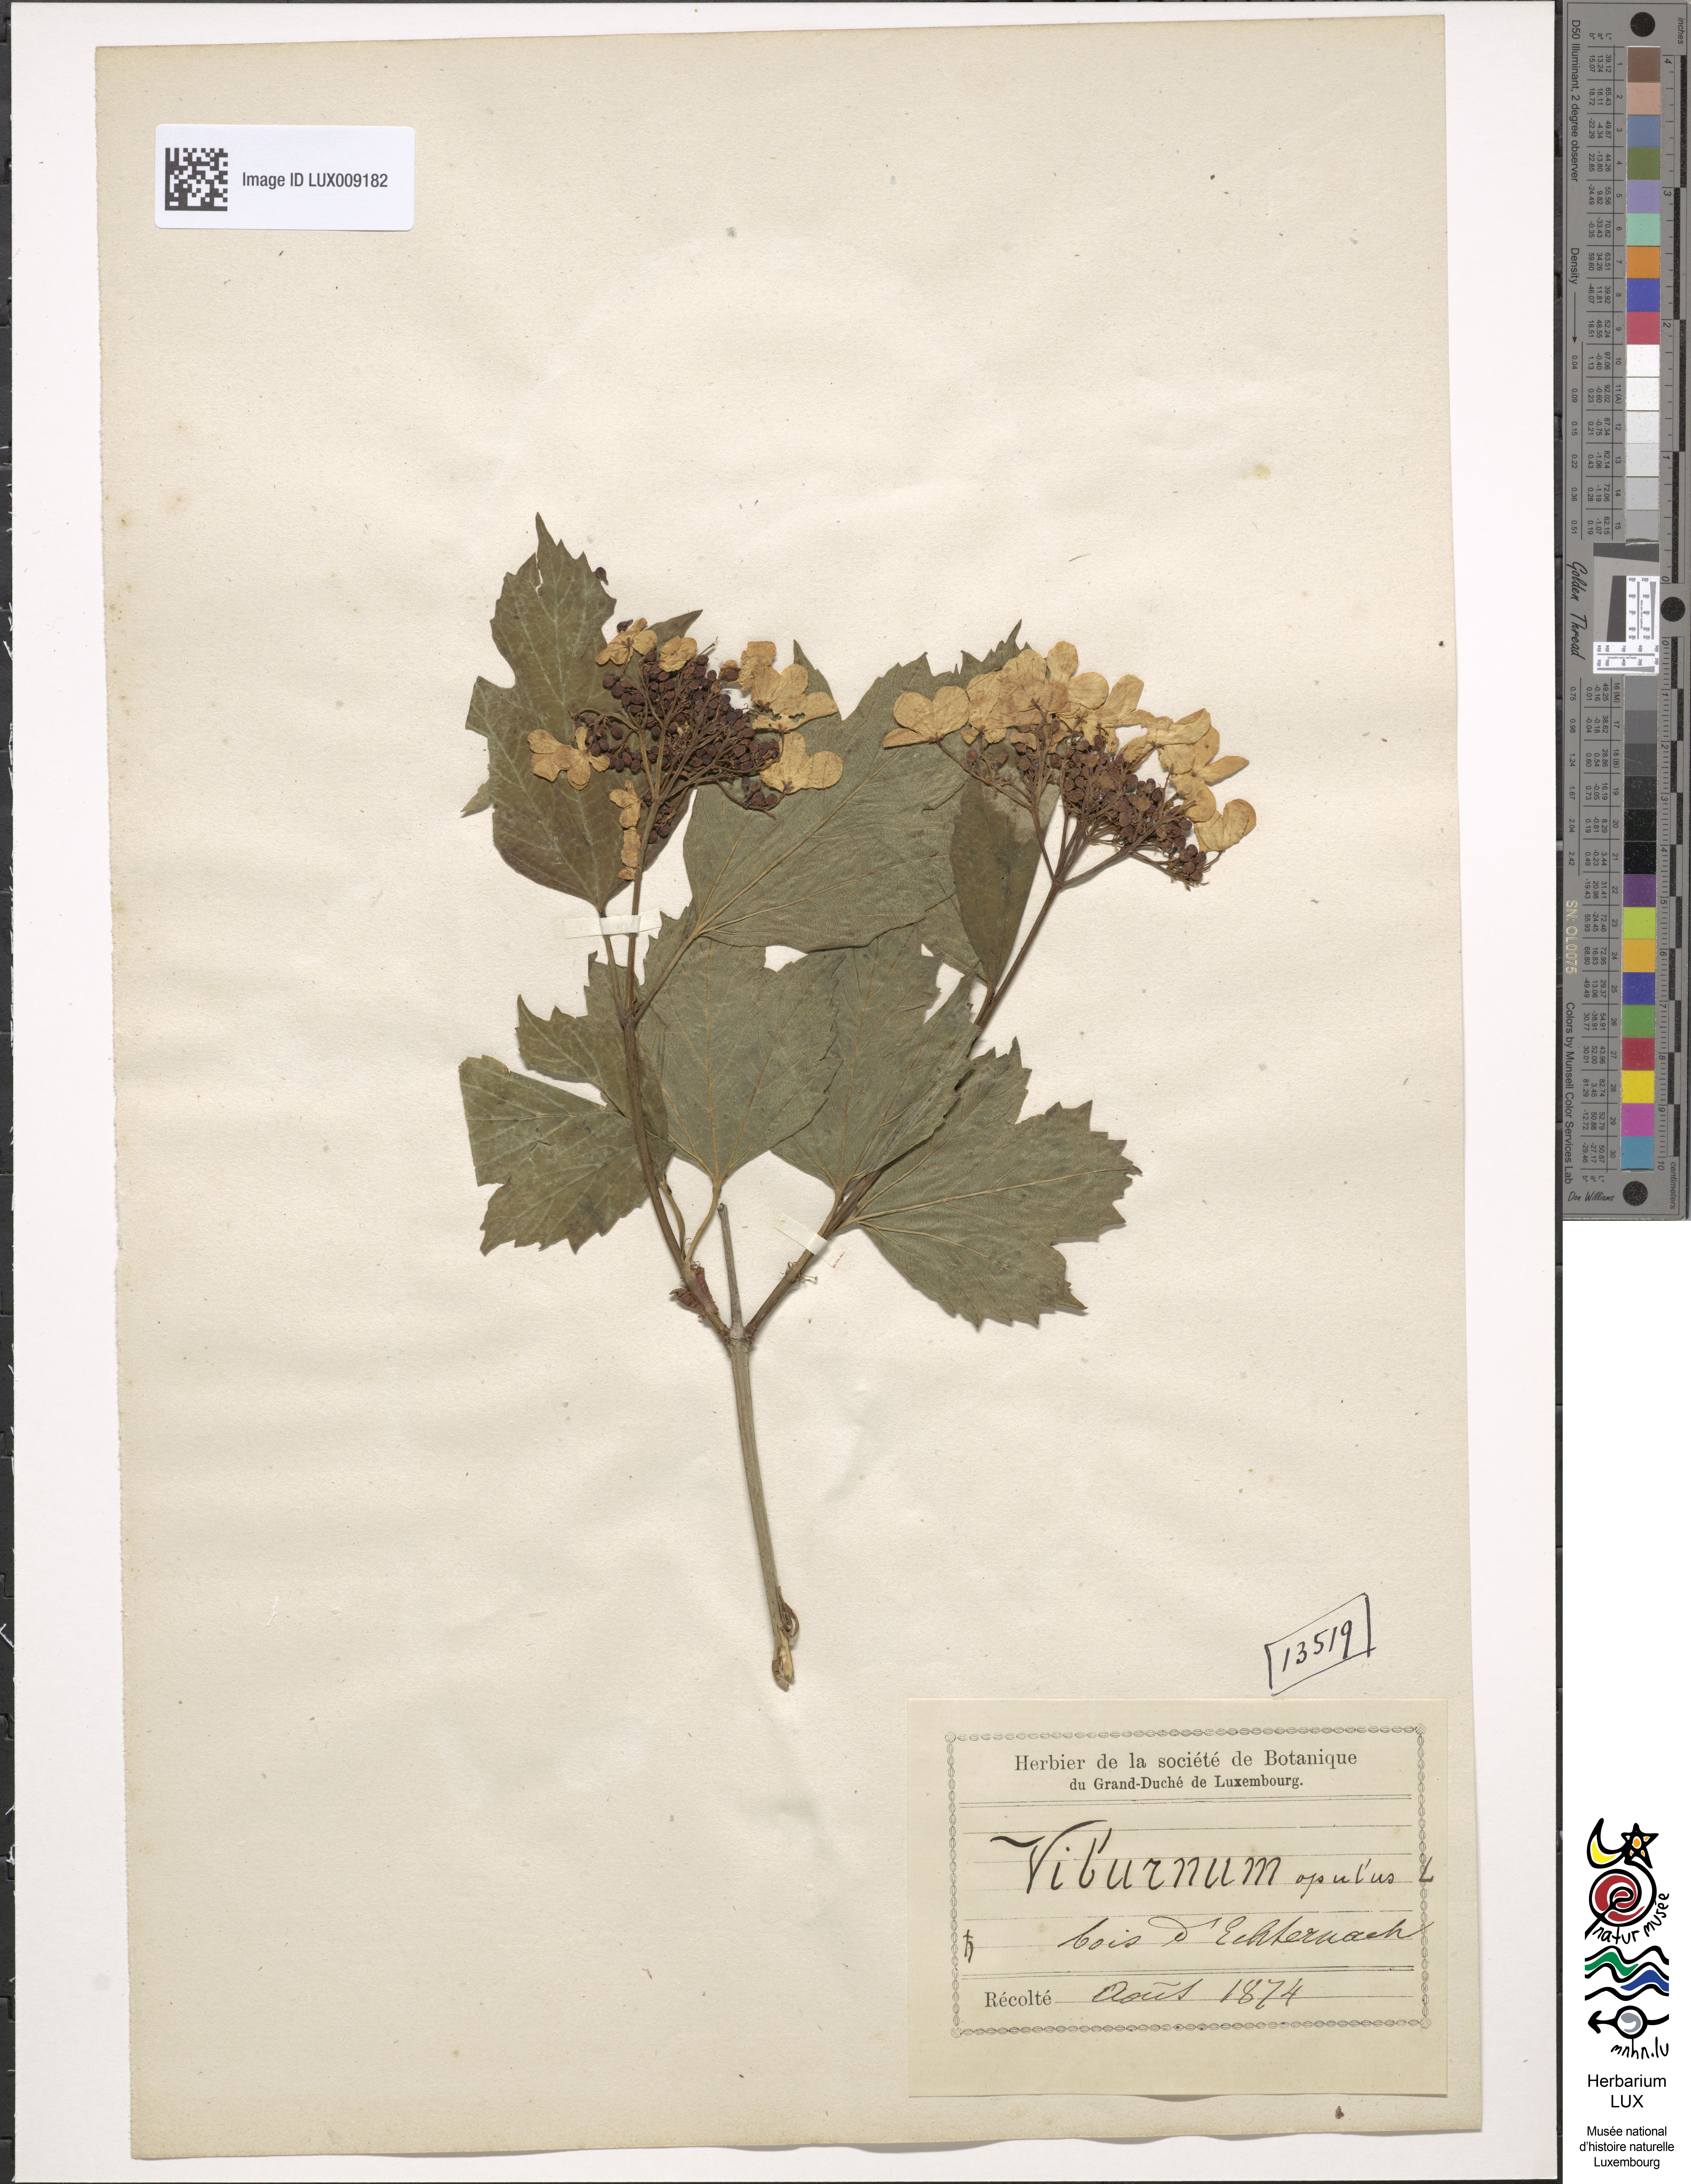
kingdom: Plantae
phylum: Tracheophyta
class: Magnoliopsida
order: Dipsacales
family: Viburnaceae
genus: Viburnum
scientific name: Viburnum opulus
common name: Guelder-rose
